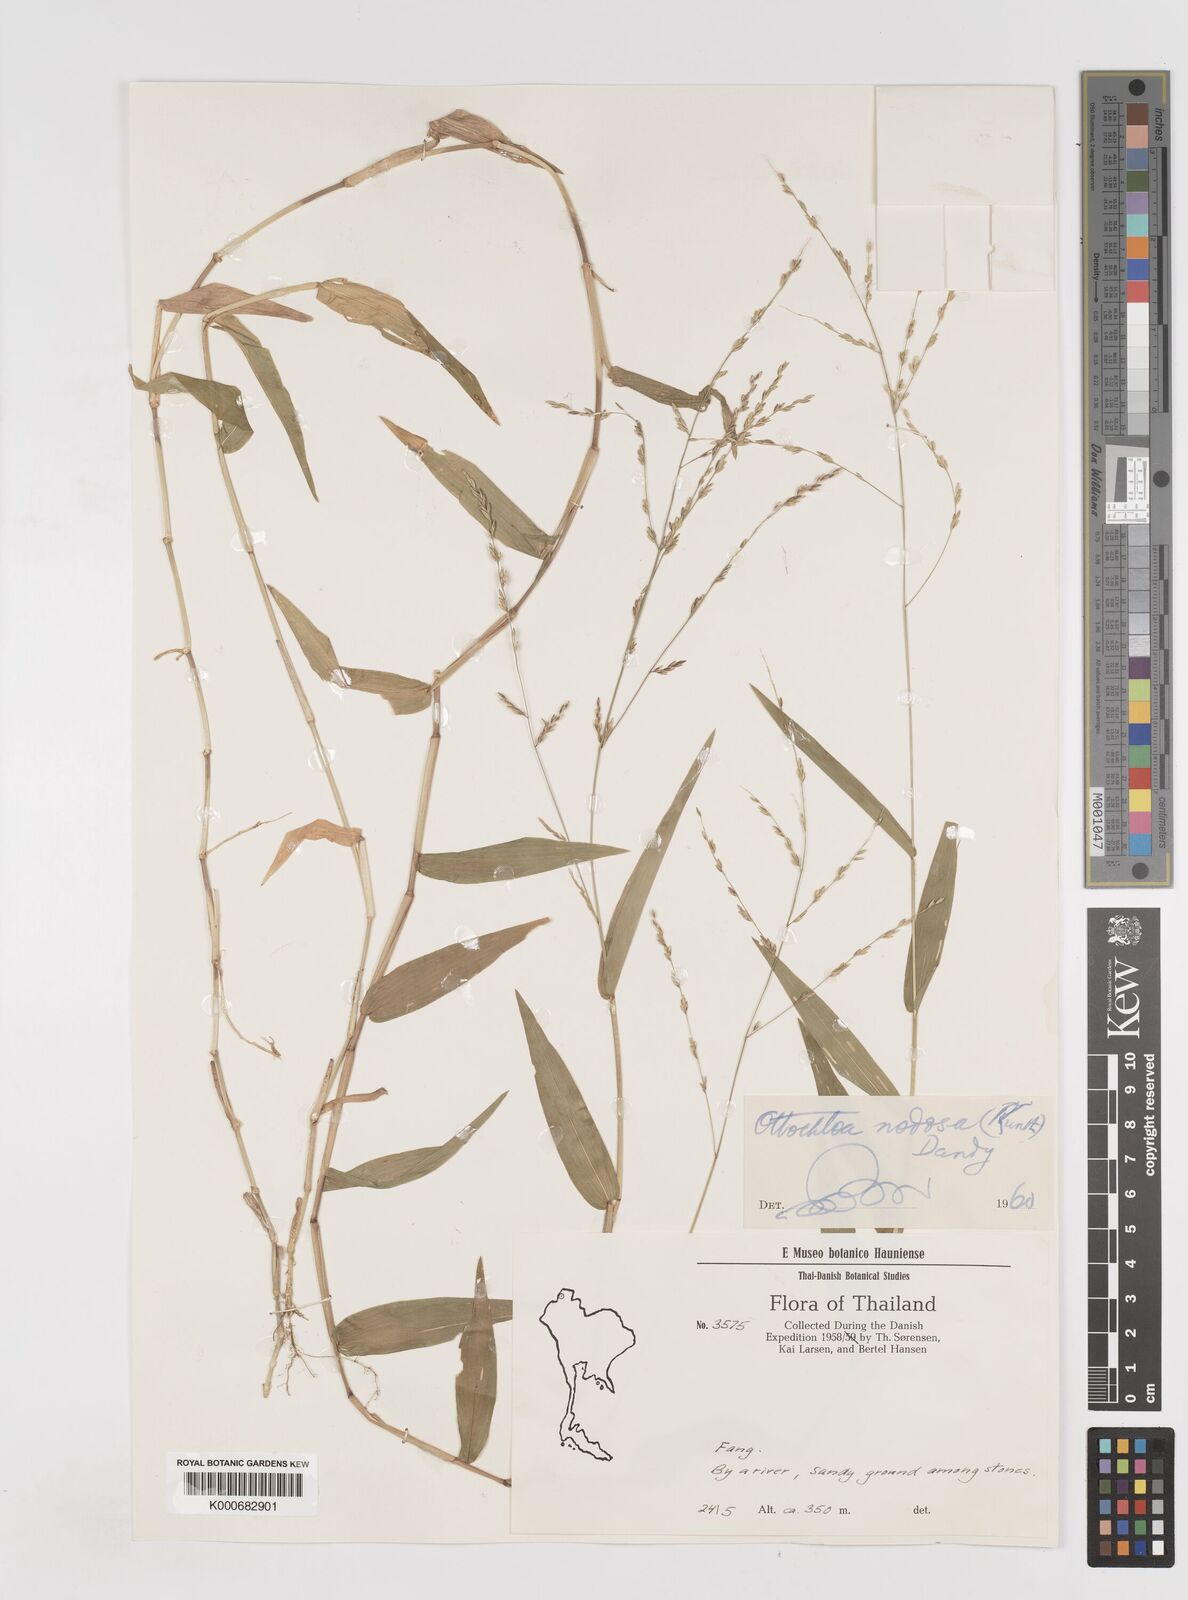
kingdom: Plantae
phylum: Tracheophyta
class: Liliopsida
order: Poales
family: Poaceae
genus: Ottochloa
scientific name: Ottochloa nodosa
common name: Slender-panic grass
